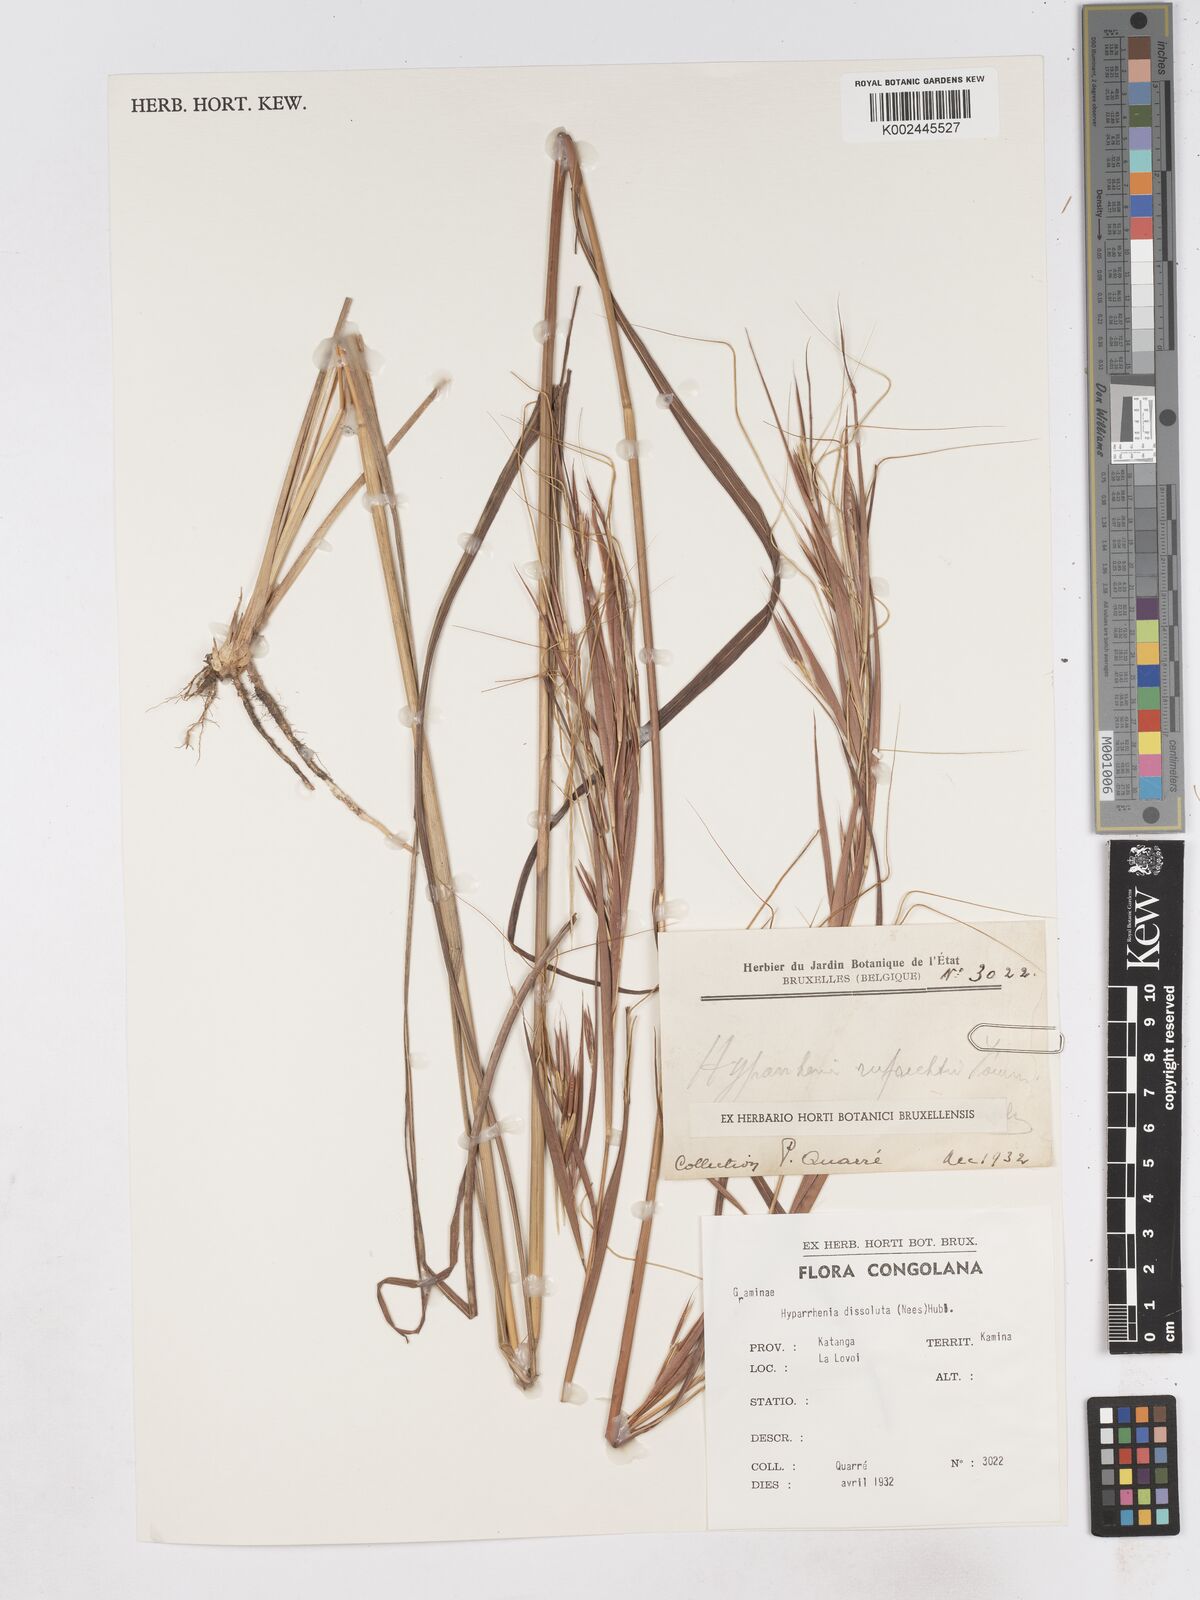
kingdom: Plantae
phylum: Tracheophyta
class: Liliopsida
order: Poales
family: Poaceae
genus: Hyperthelia
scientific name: Hyperthelia dissoluta
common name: Yellow thatching grass
